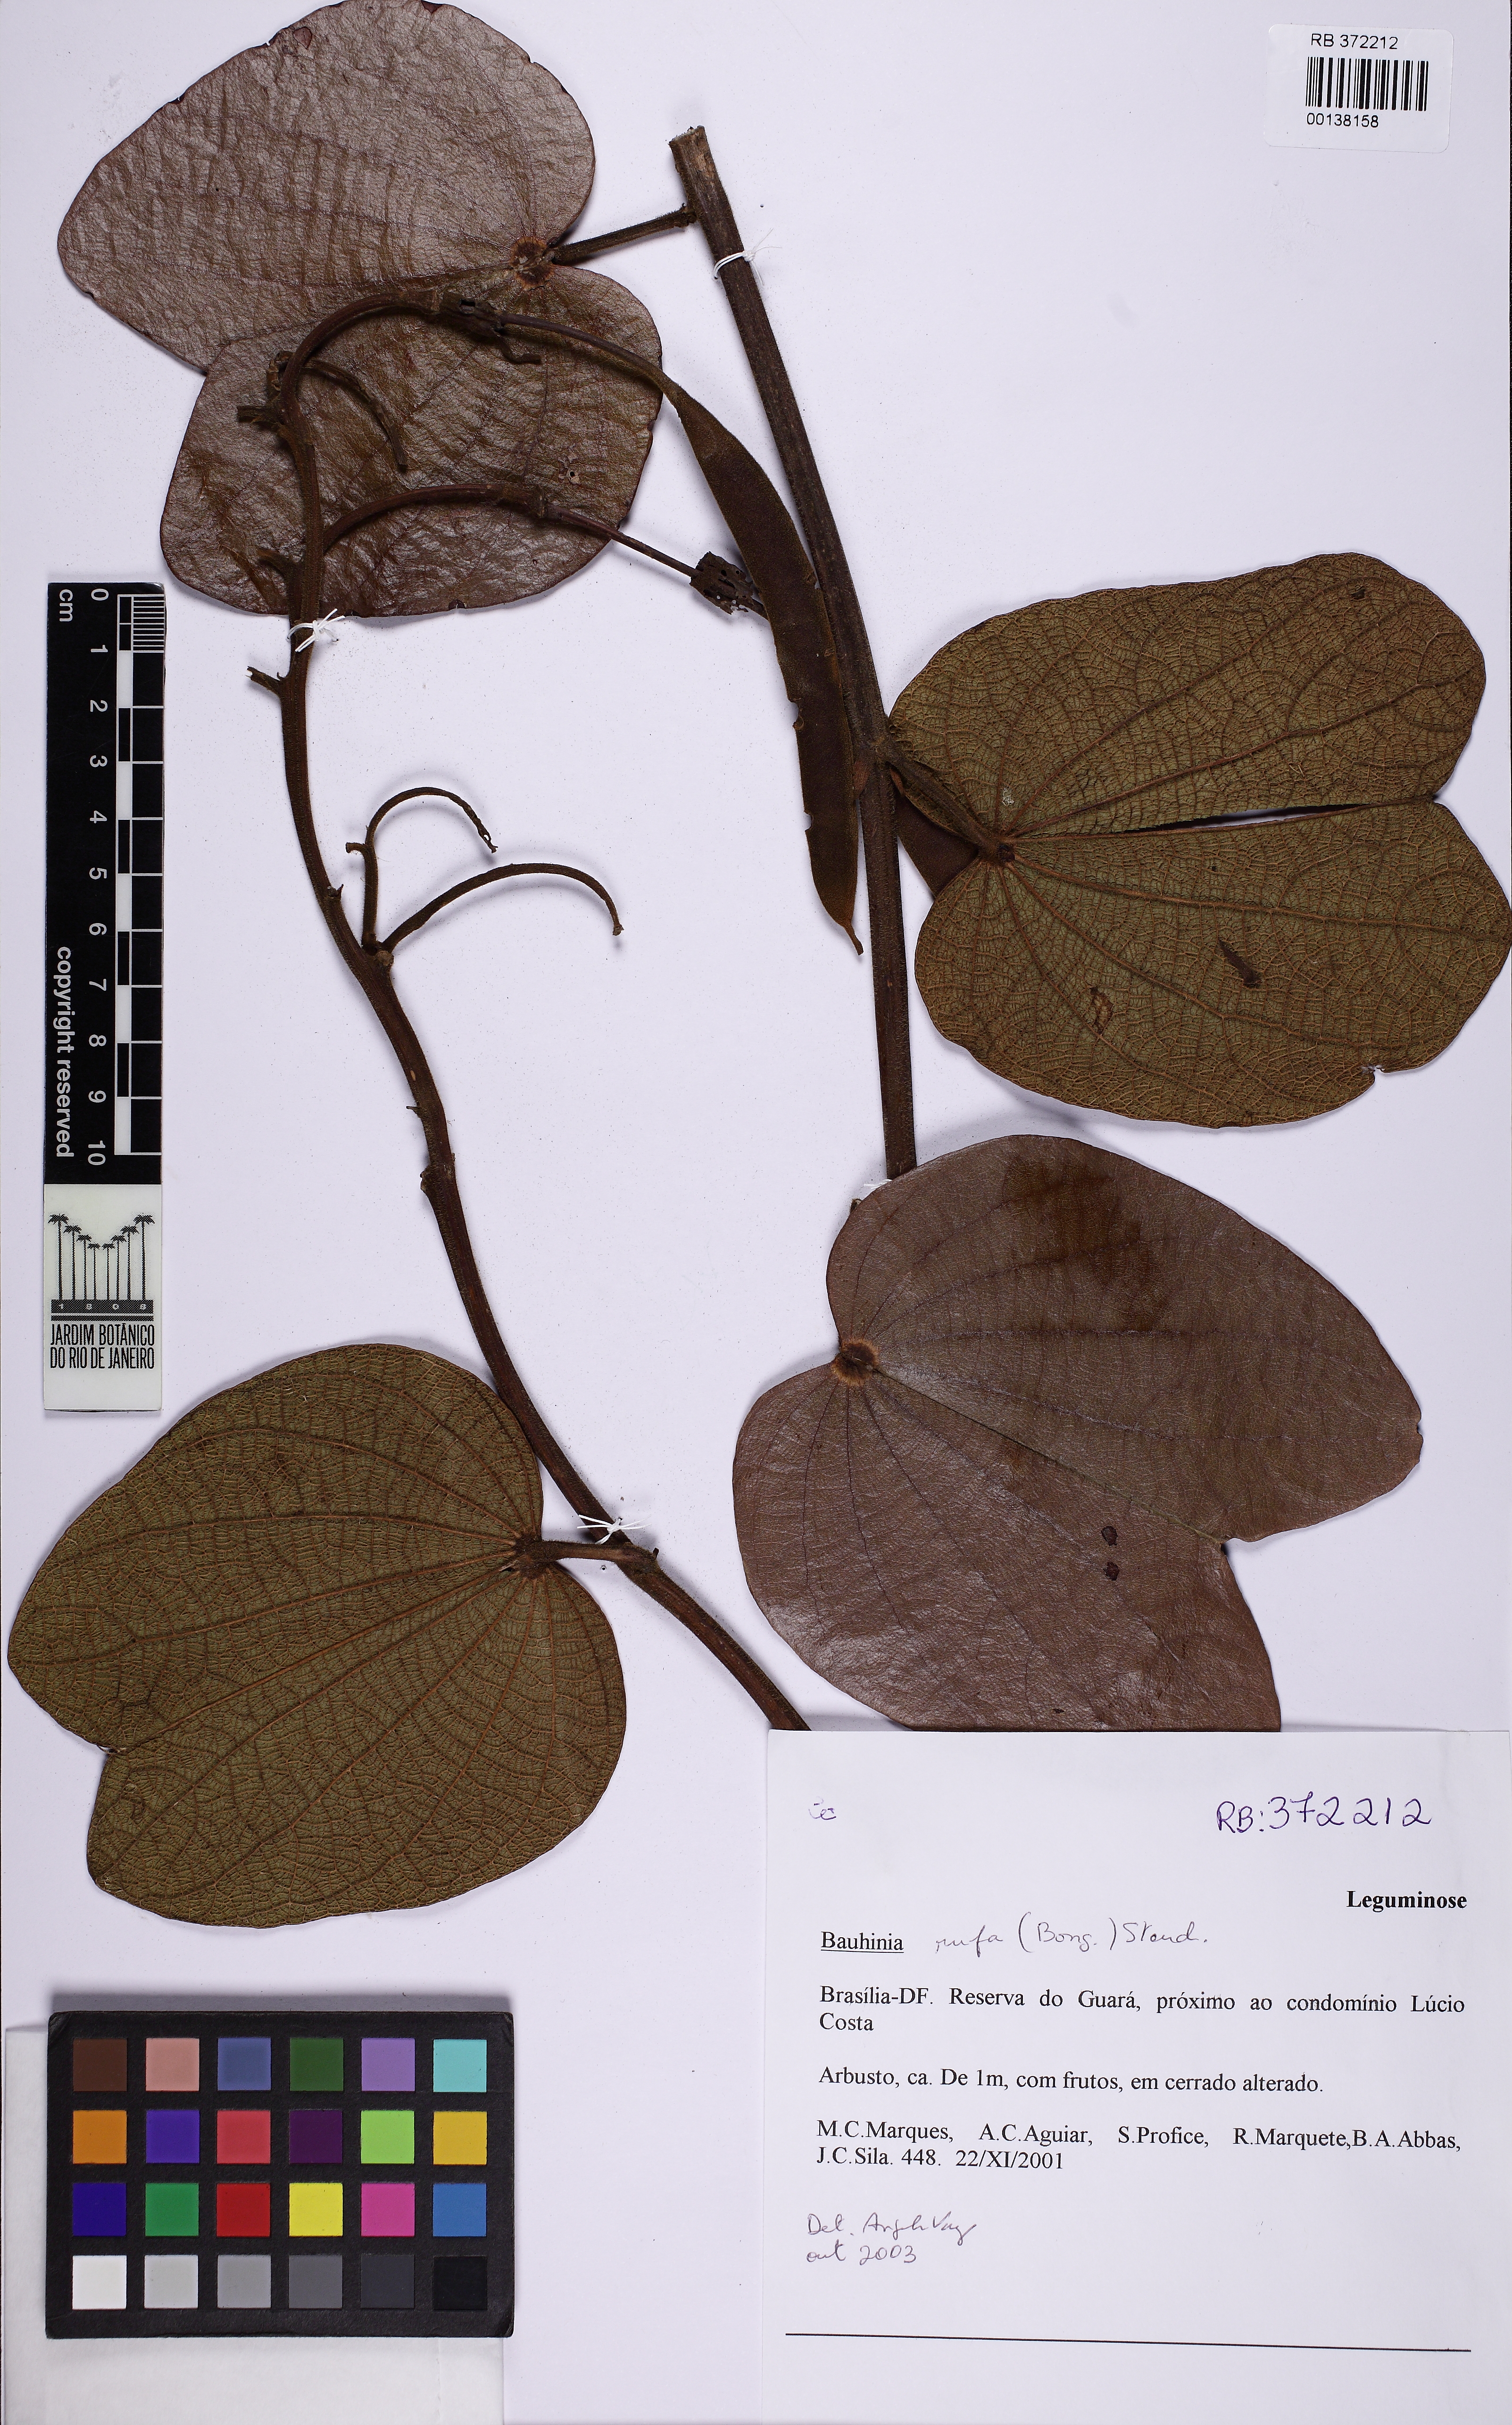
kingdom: Plantae
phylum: Tracheophyta
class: Magnoliopsida
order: Fabales
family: Fabaceae
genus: Bauhinia
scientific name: Bauhinia rufa
